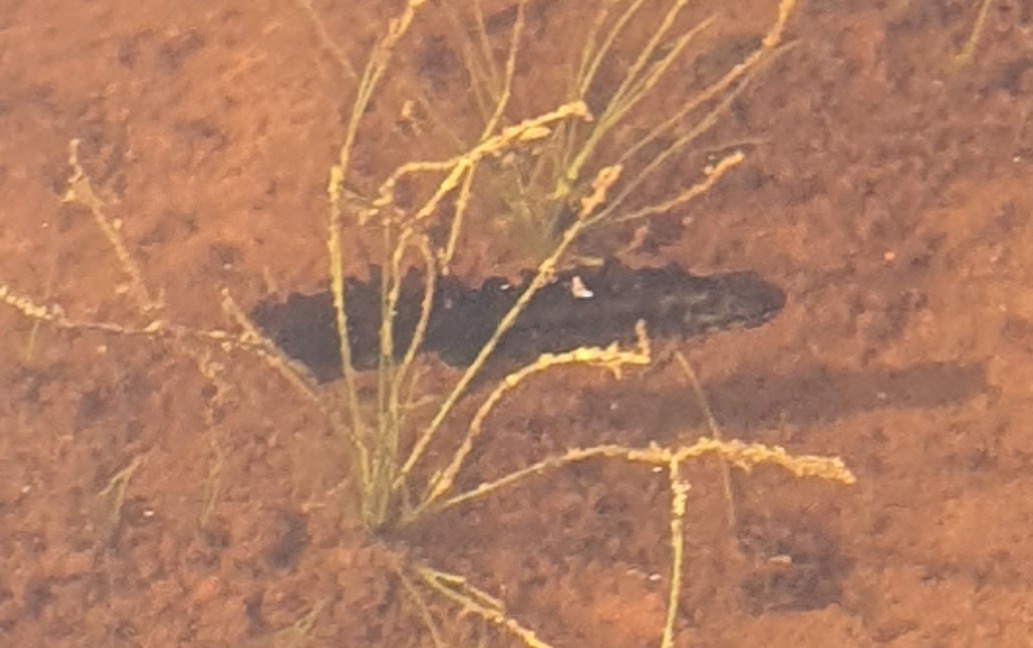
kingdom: Animalia
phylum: Chordata
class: Amphibia
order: Caudata
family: Salamandridae
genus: Lissotriton
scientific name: Lissotriton vulgaris
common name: Lille vandsalamander
